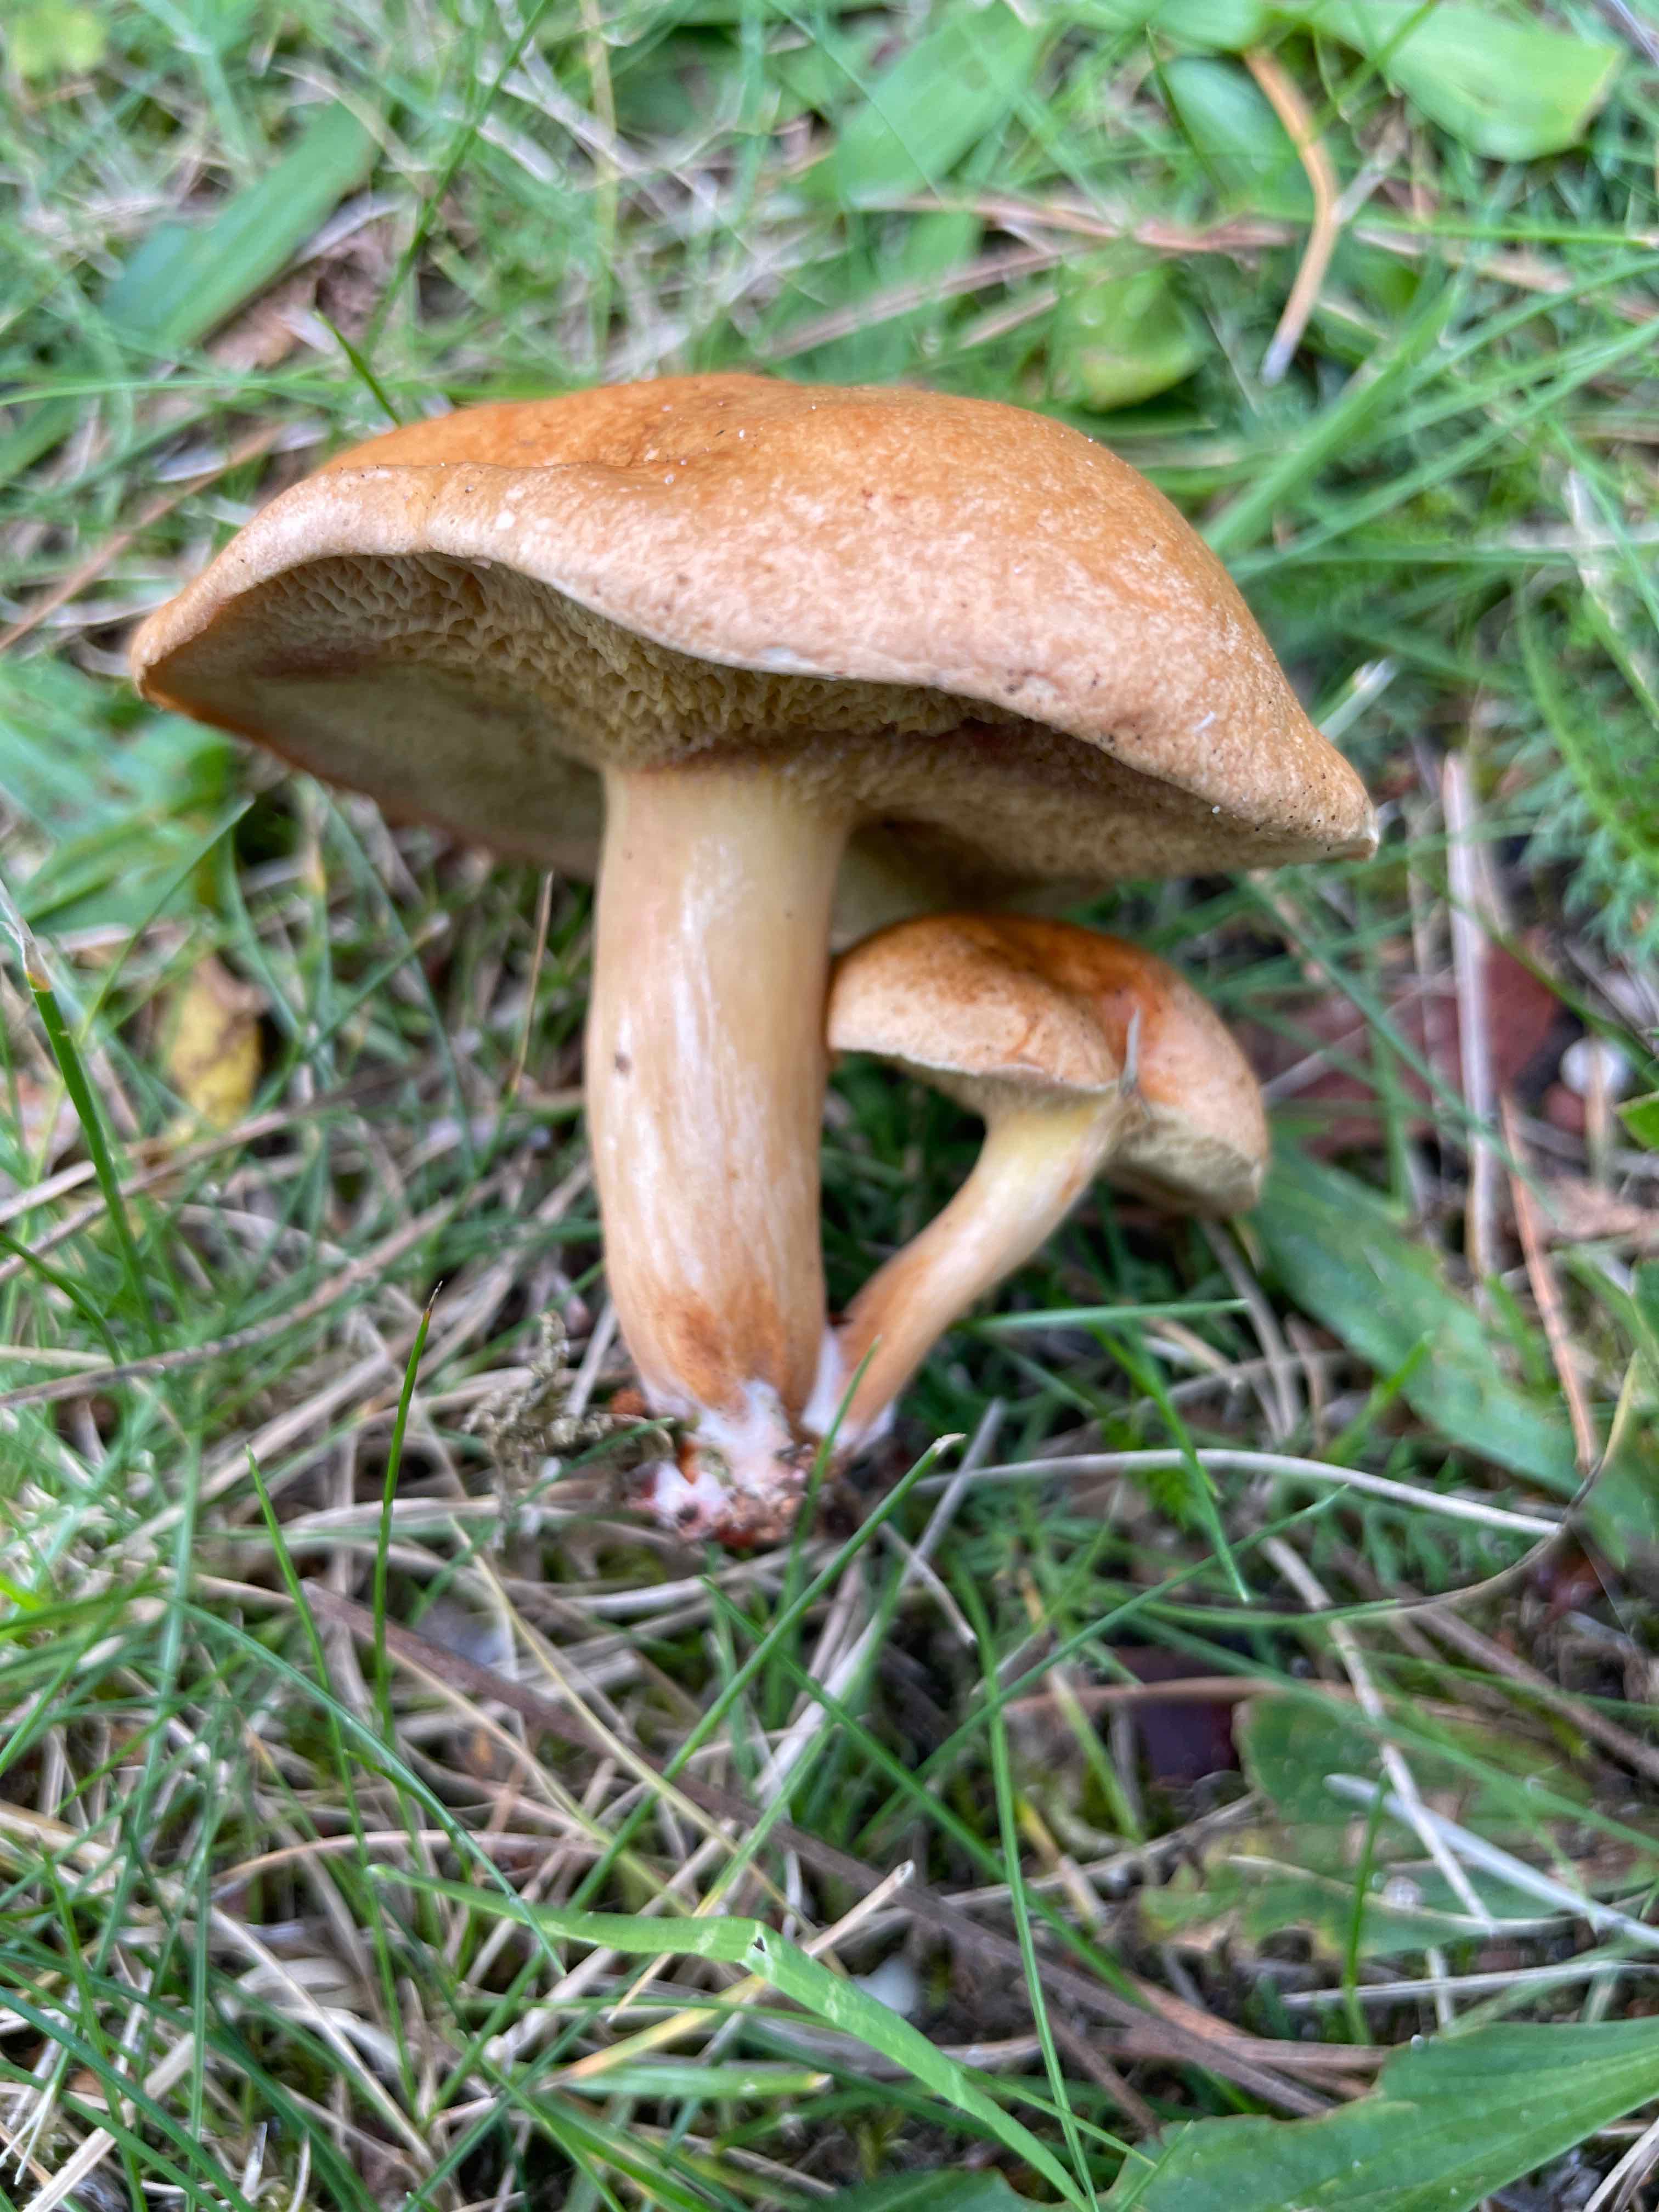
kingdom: Fungi
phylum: Basidiomycota
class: Agaricomycetes
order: Boletales
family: Suillaceae
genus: Suillus
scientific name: Suillus bovinus
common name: grovporet slimrørhat
